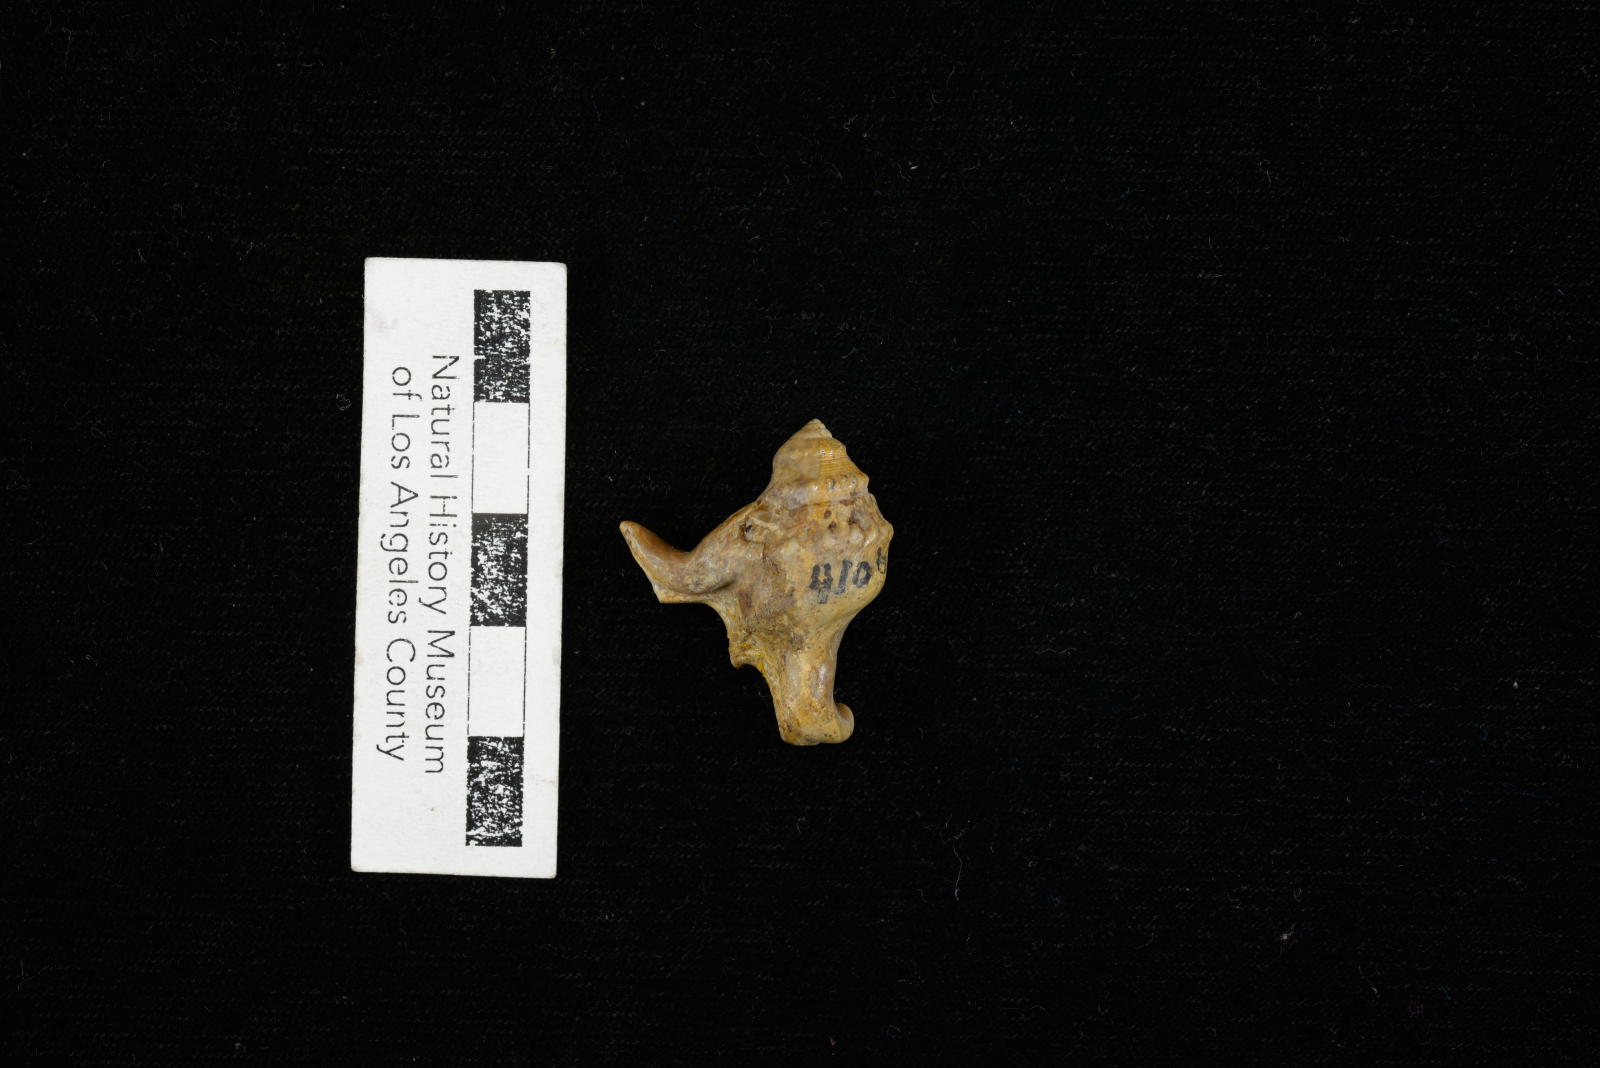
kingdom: Animalia
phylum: Mollusca
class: Gastropoda
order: Littorinimorpha
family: Aporrhaidae
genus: Pyktes
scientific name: Pyktes triphyllon
